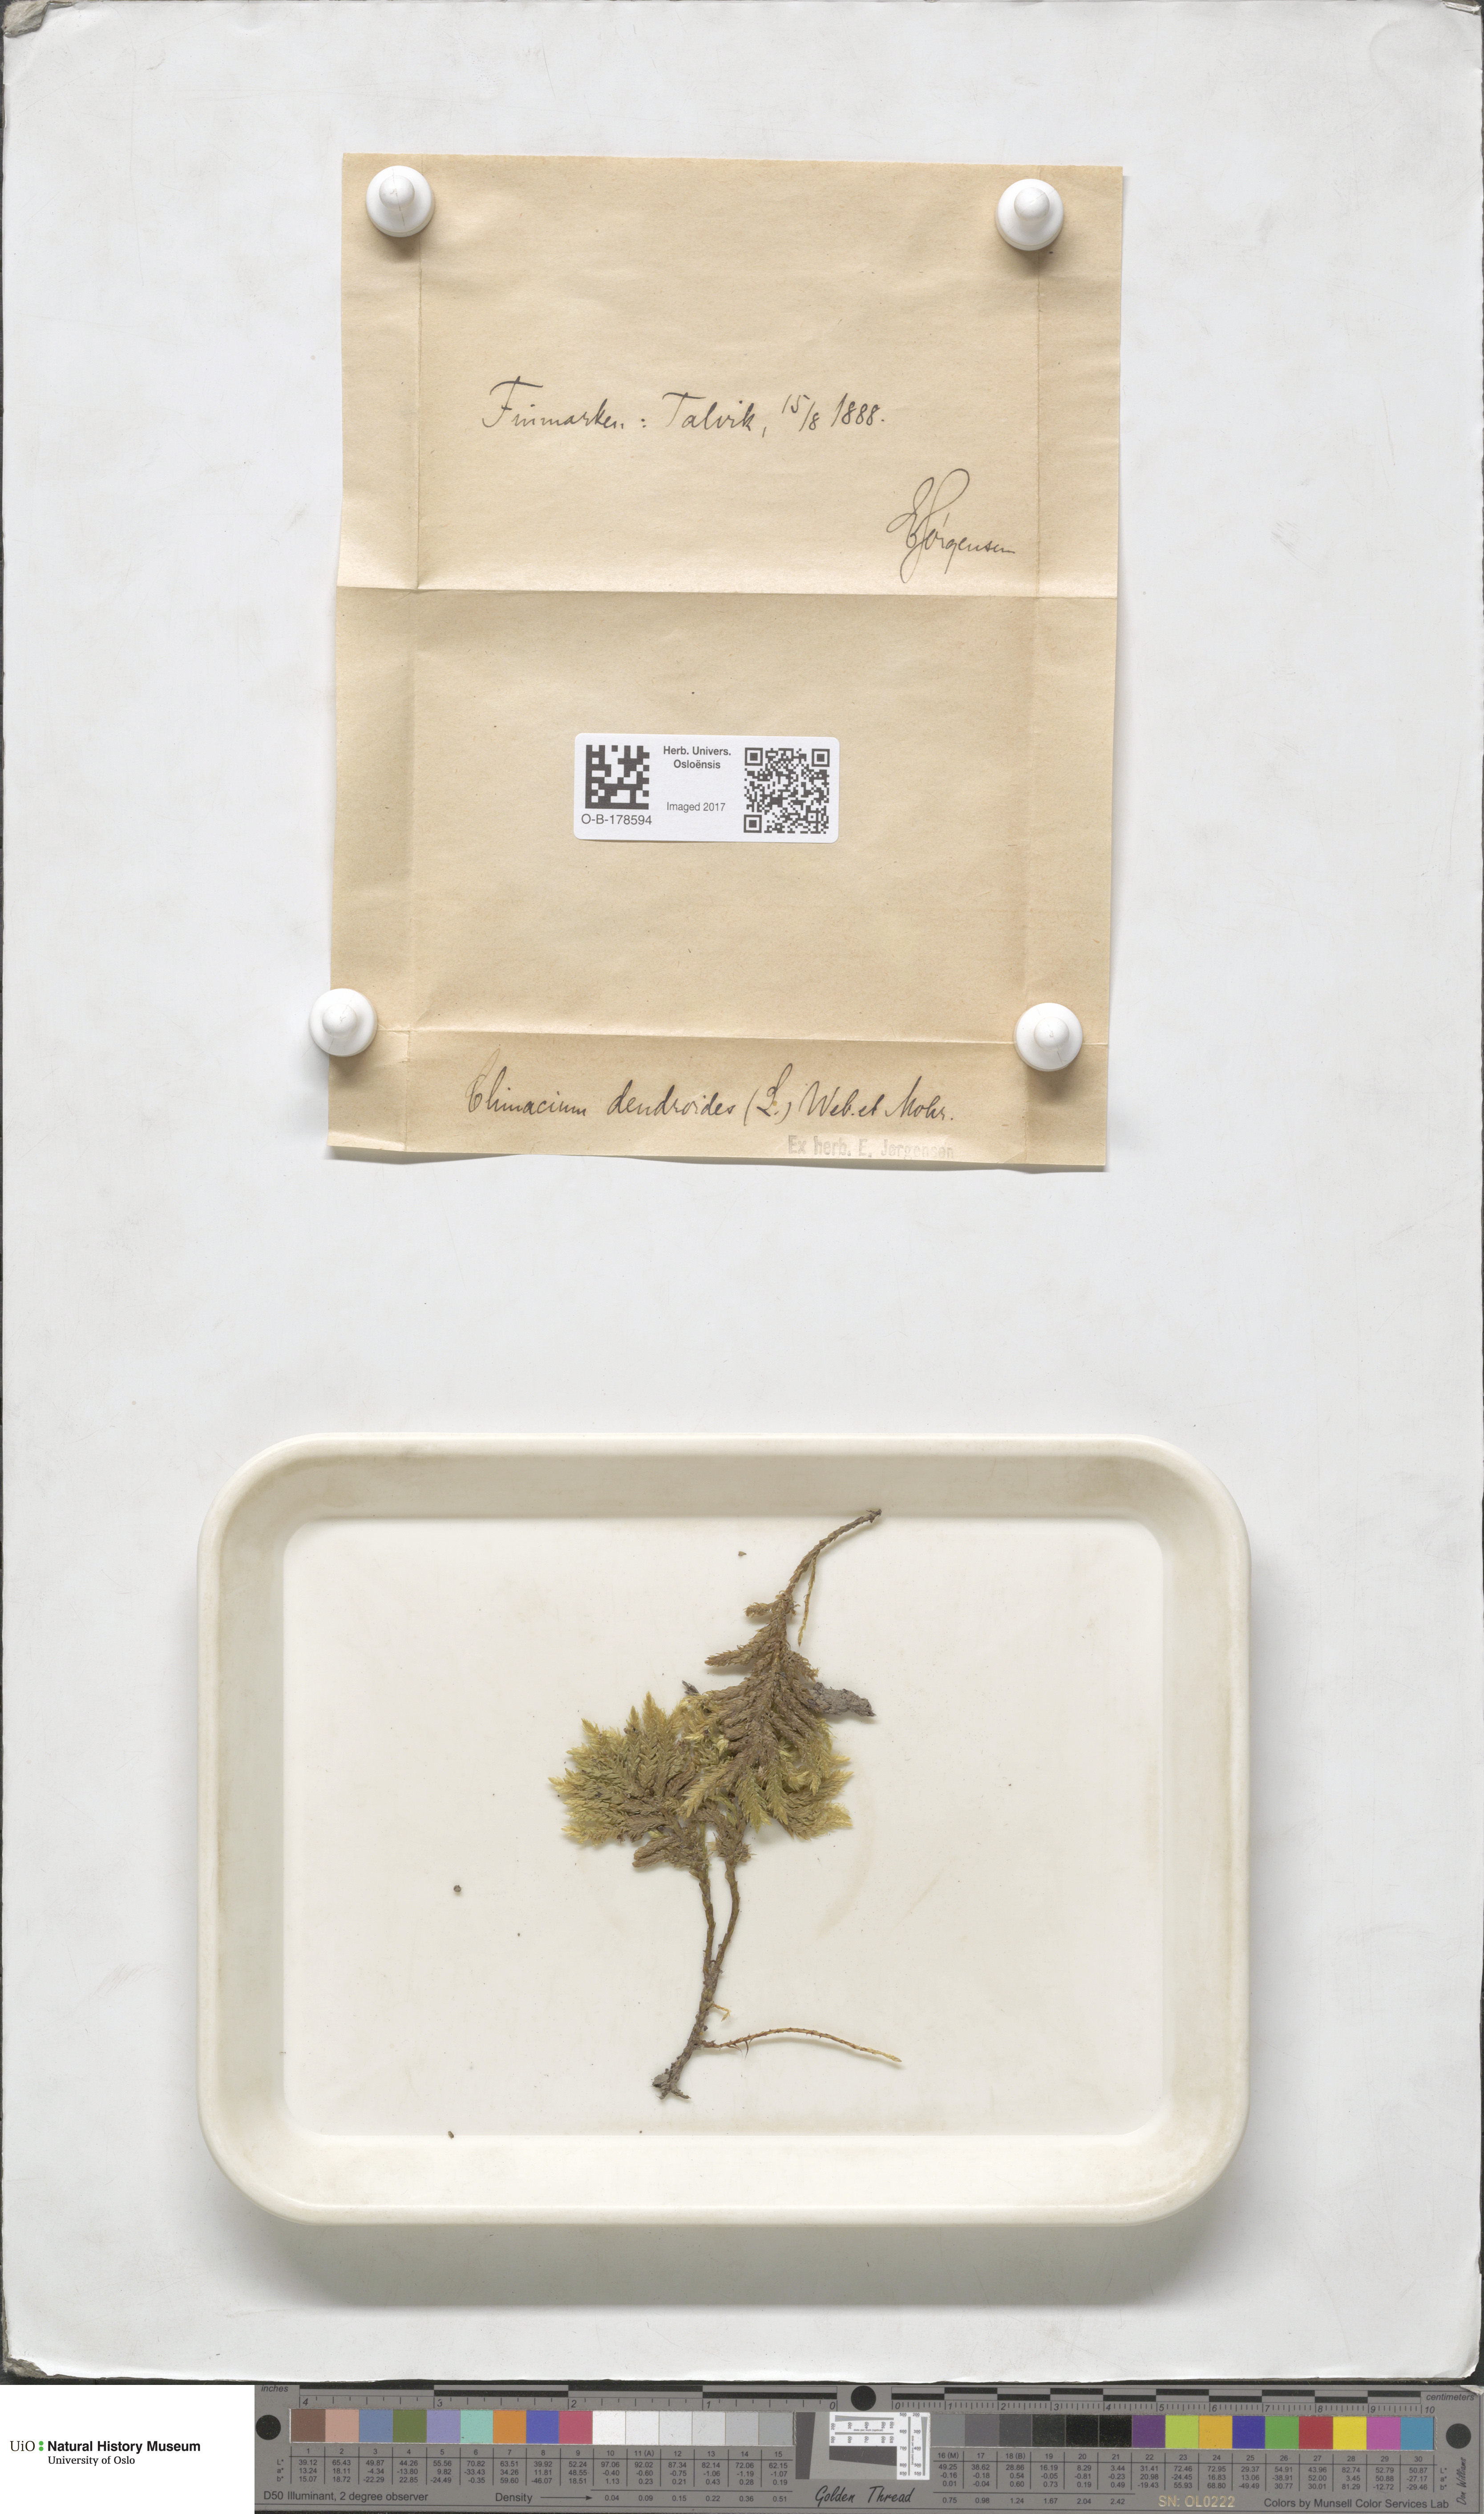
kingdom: Plantae
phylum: Bryophyta
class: Bryopsida
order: Hypnales
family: Climaciaceae
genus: Climacium
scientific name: Climacium dendroides
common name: Northern tree moss
